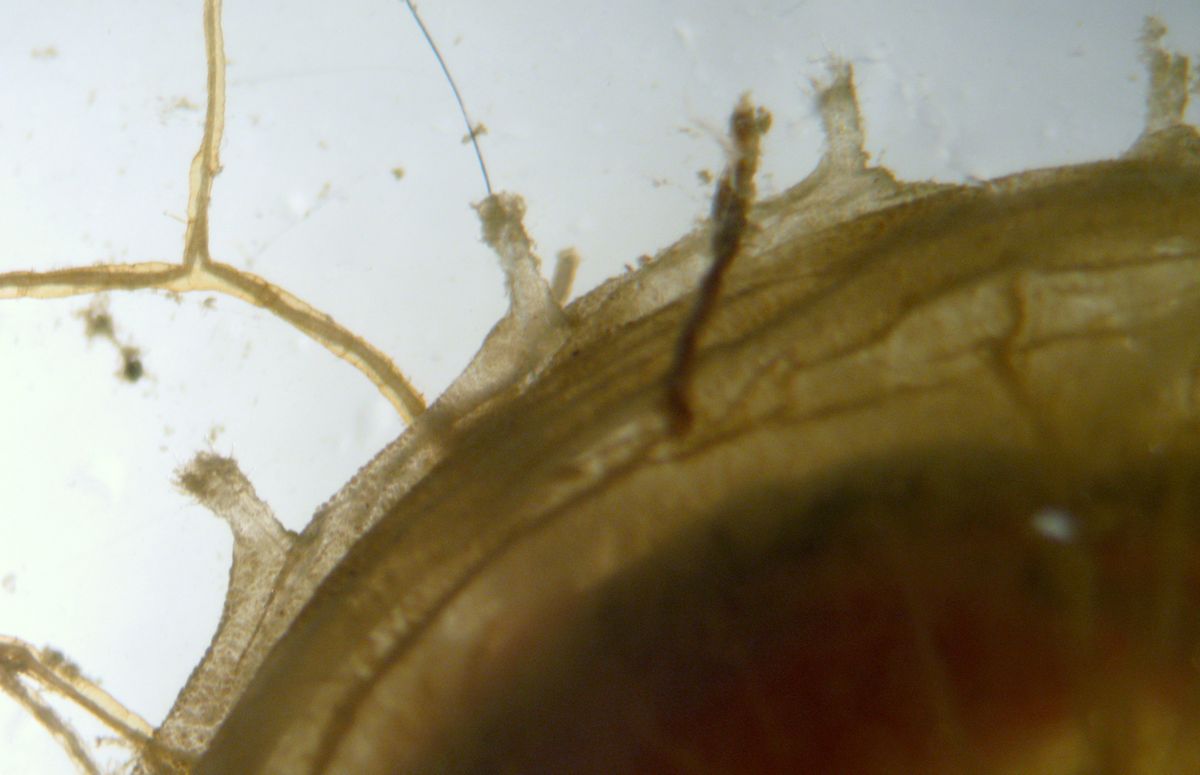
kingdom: Animalia
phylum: Annelida
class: Polychaeta
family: Flabelligeridae
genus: Flabelligera
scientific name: Flabelligera affinis
